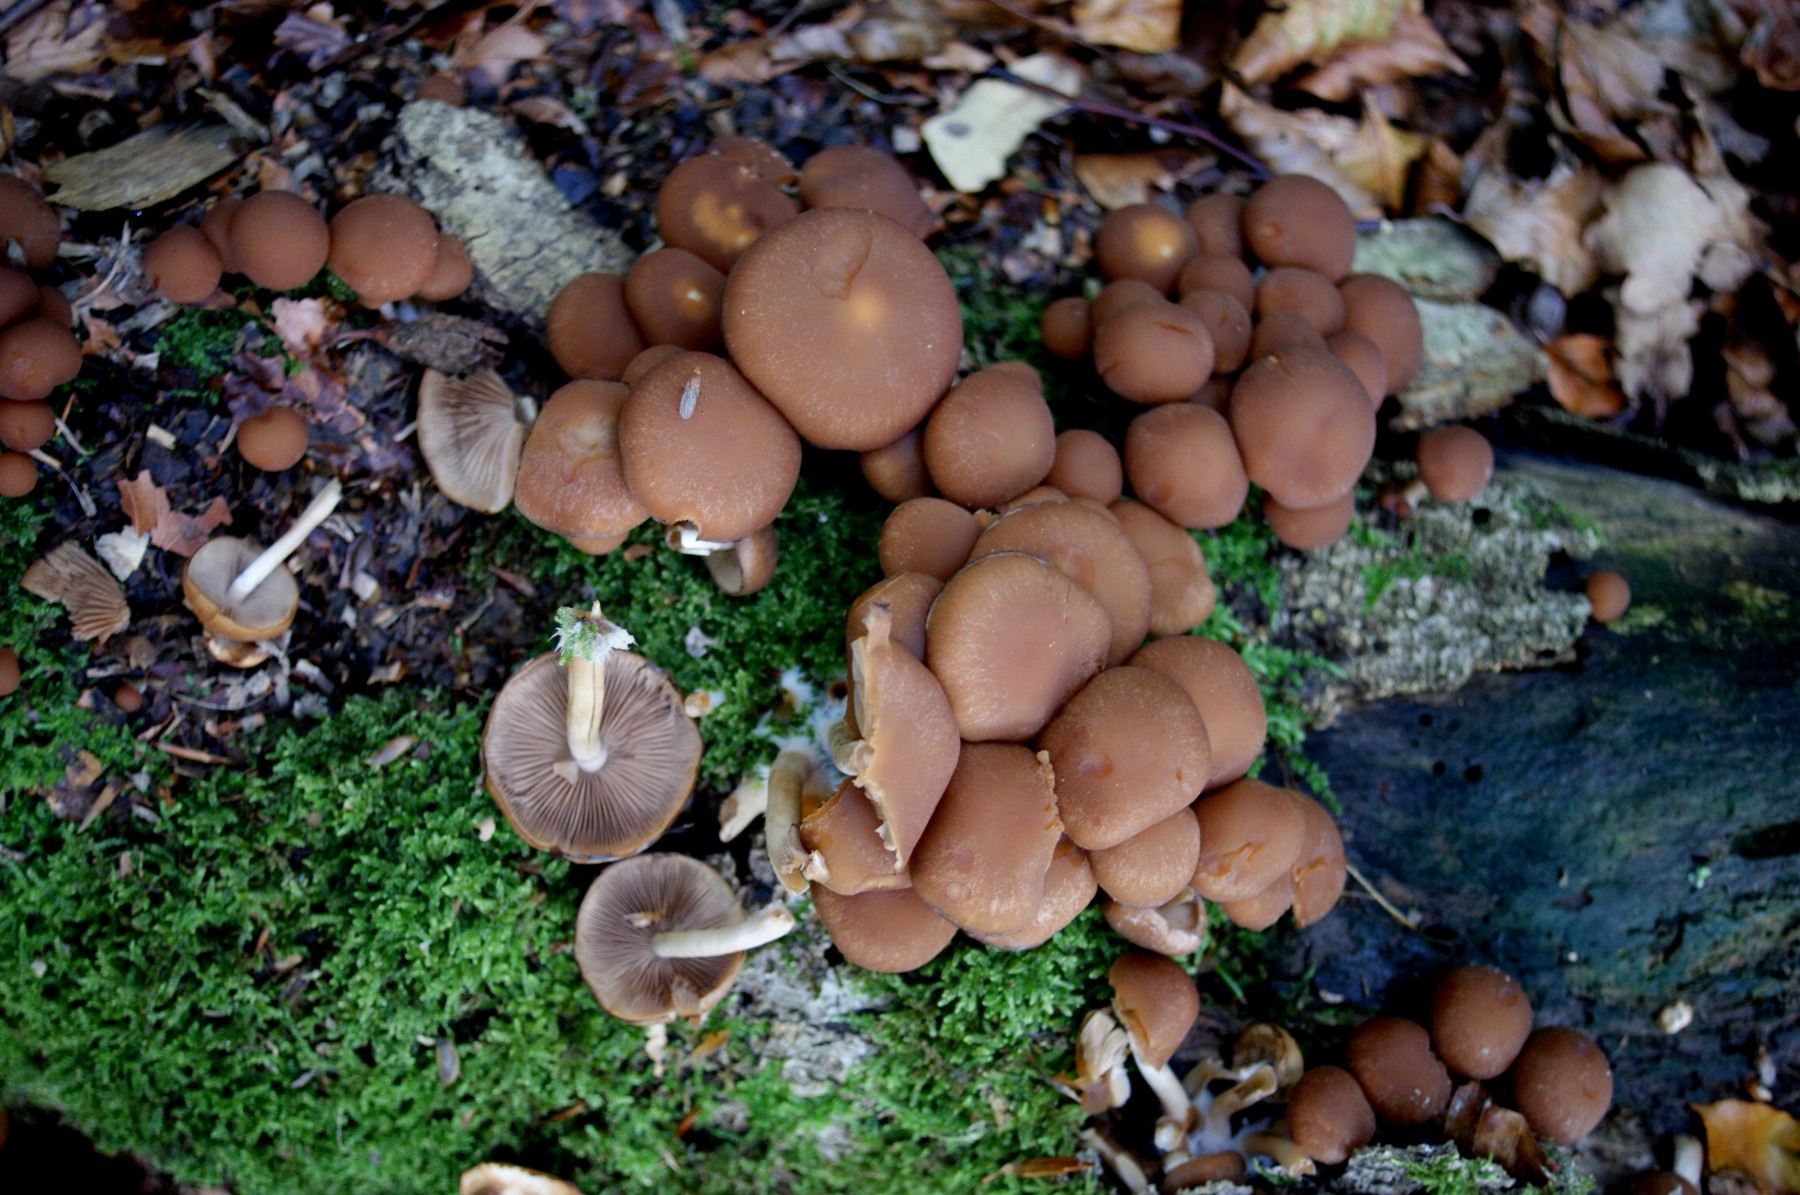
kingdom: Fungi
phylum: Basidiomycota
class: Agaricomycetes
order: Agaricales
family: Psathyrellaceae
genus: Psathyrella
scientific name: Psathyrella piluliformis
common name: lysstokket mørkhat
